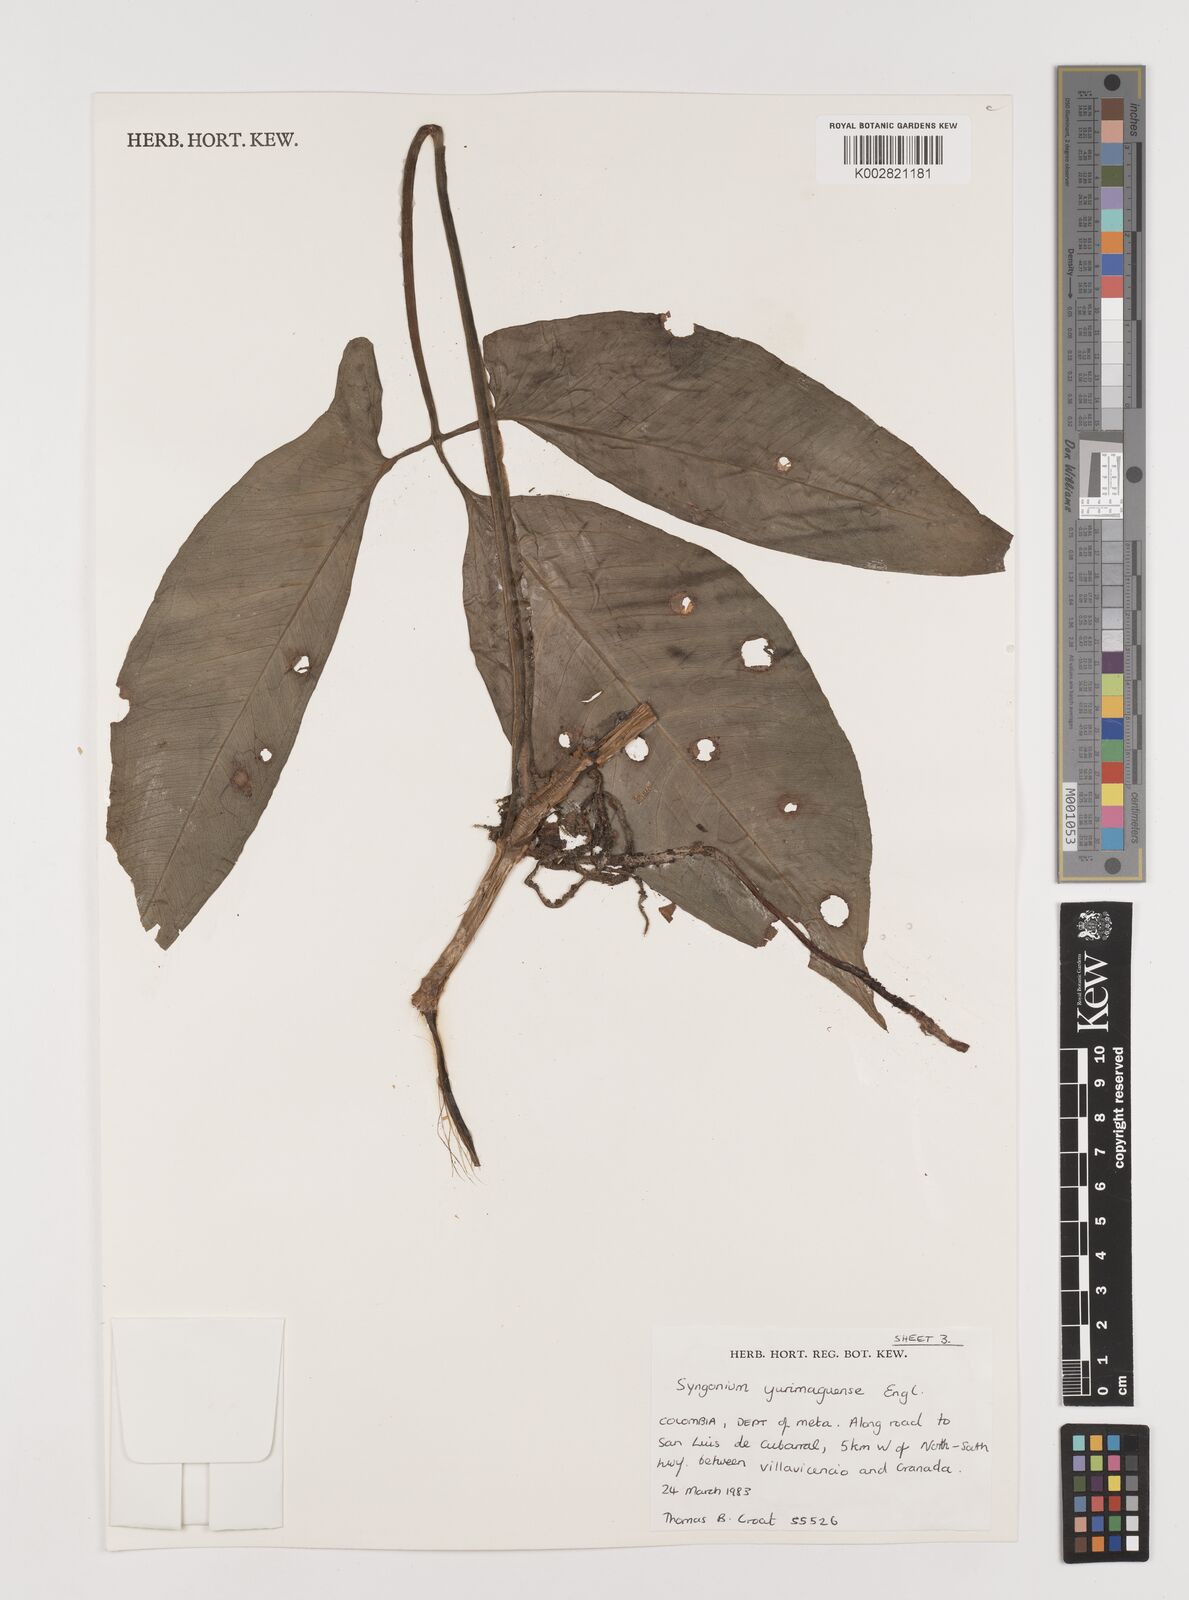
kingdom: Plantae
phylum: Tracheophyta
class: Liliopsida
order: Alismatales
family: Araceae
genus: Syngonium
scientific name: Syngonium yurimaguense
